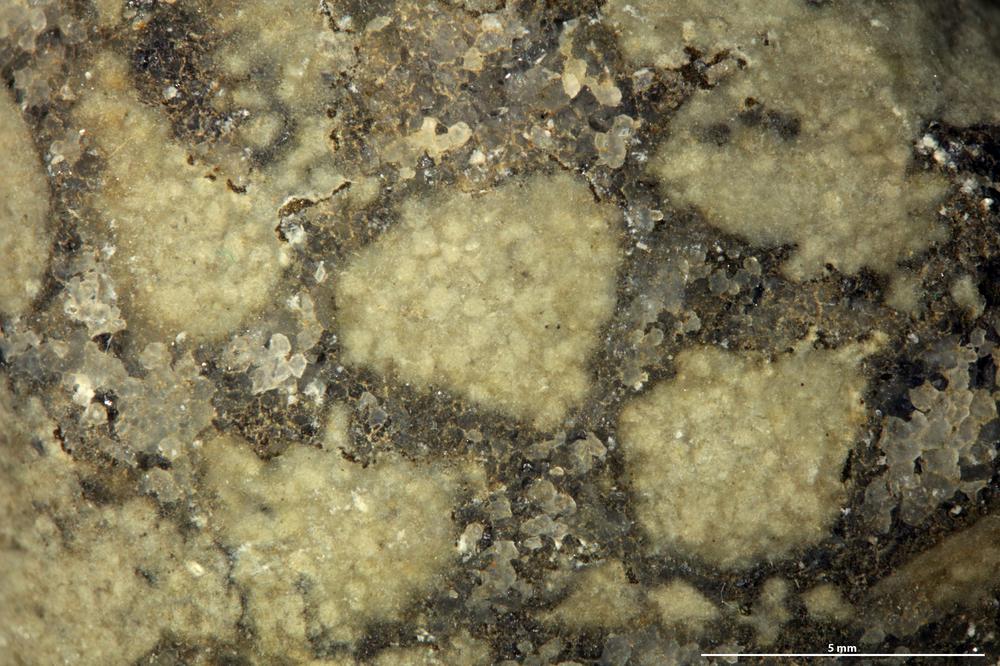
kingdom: Animalia
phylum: Brachiopoda
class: Rhynchonellata
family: Porambonitidae
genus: Porambonites
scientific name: Porambonites
